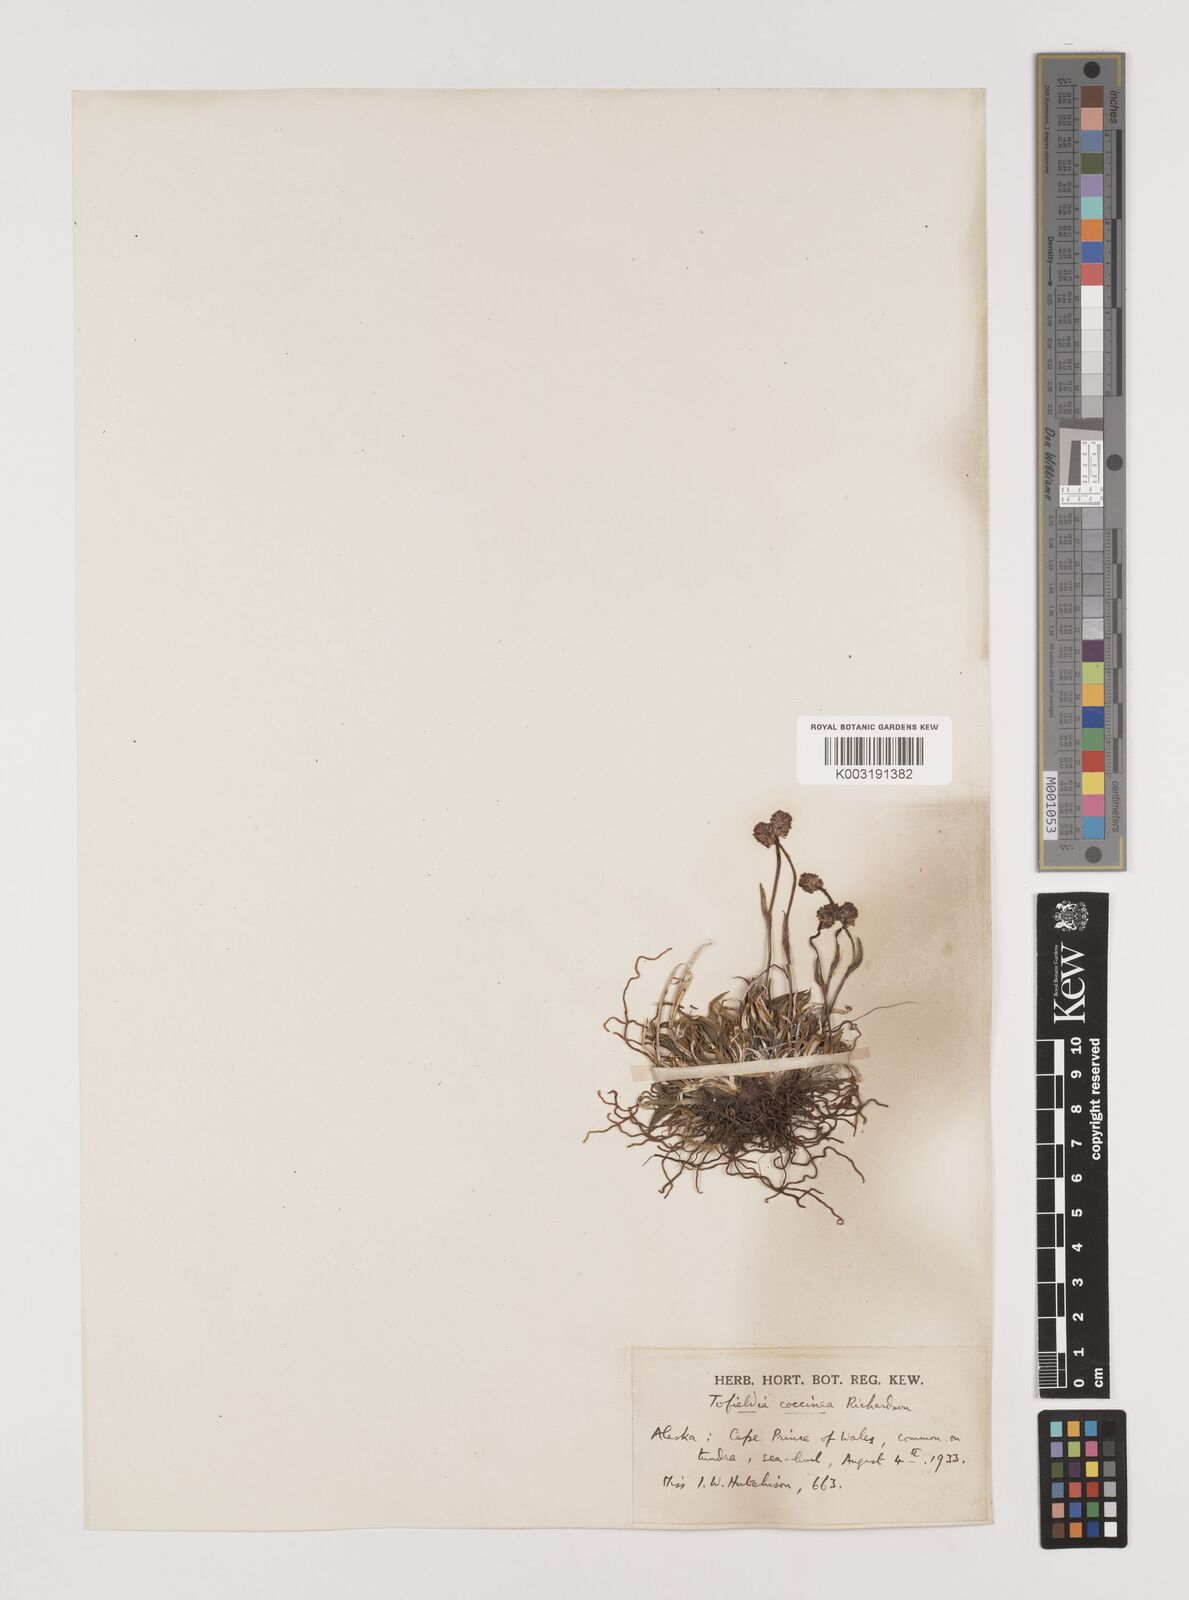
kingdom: Plantae
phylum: Tracheophyta
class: Liliopsida
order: Alismatales
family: Tofieldiaceae
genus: Tofieldia
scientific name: Tofieldia coccinea
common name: Northern false asphodel
